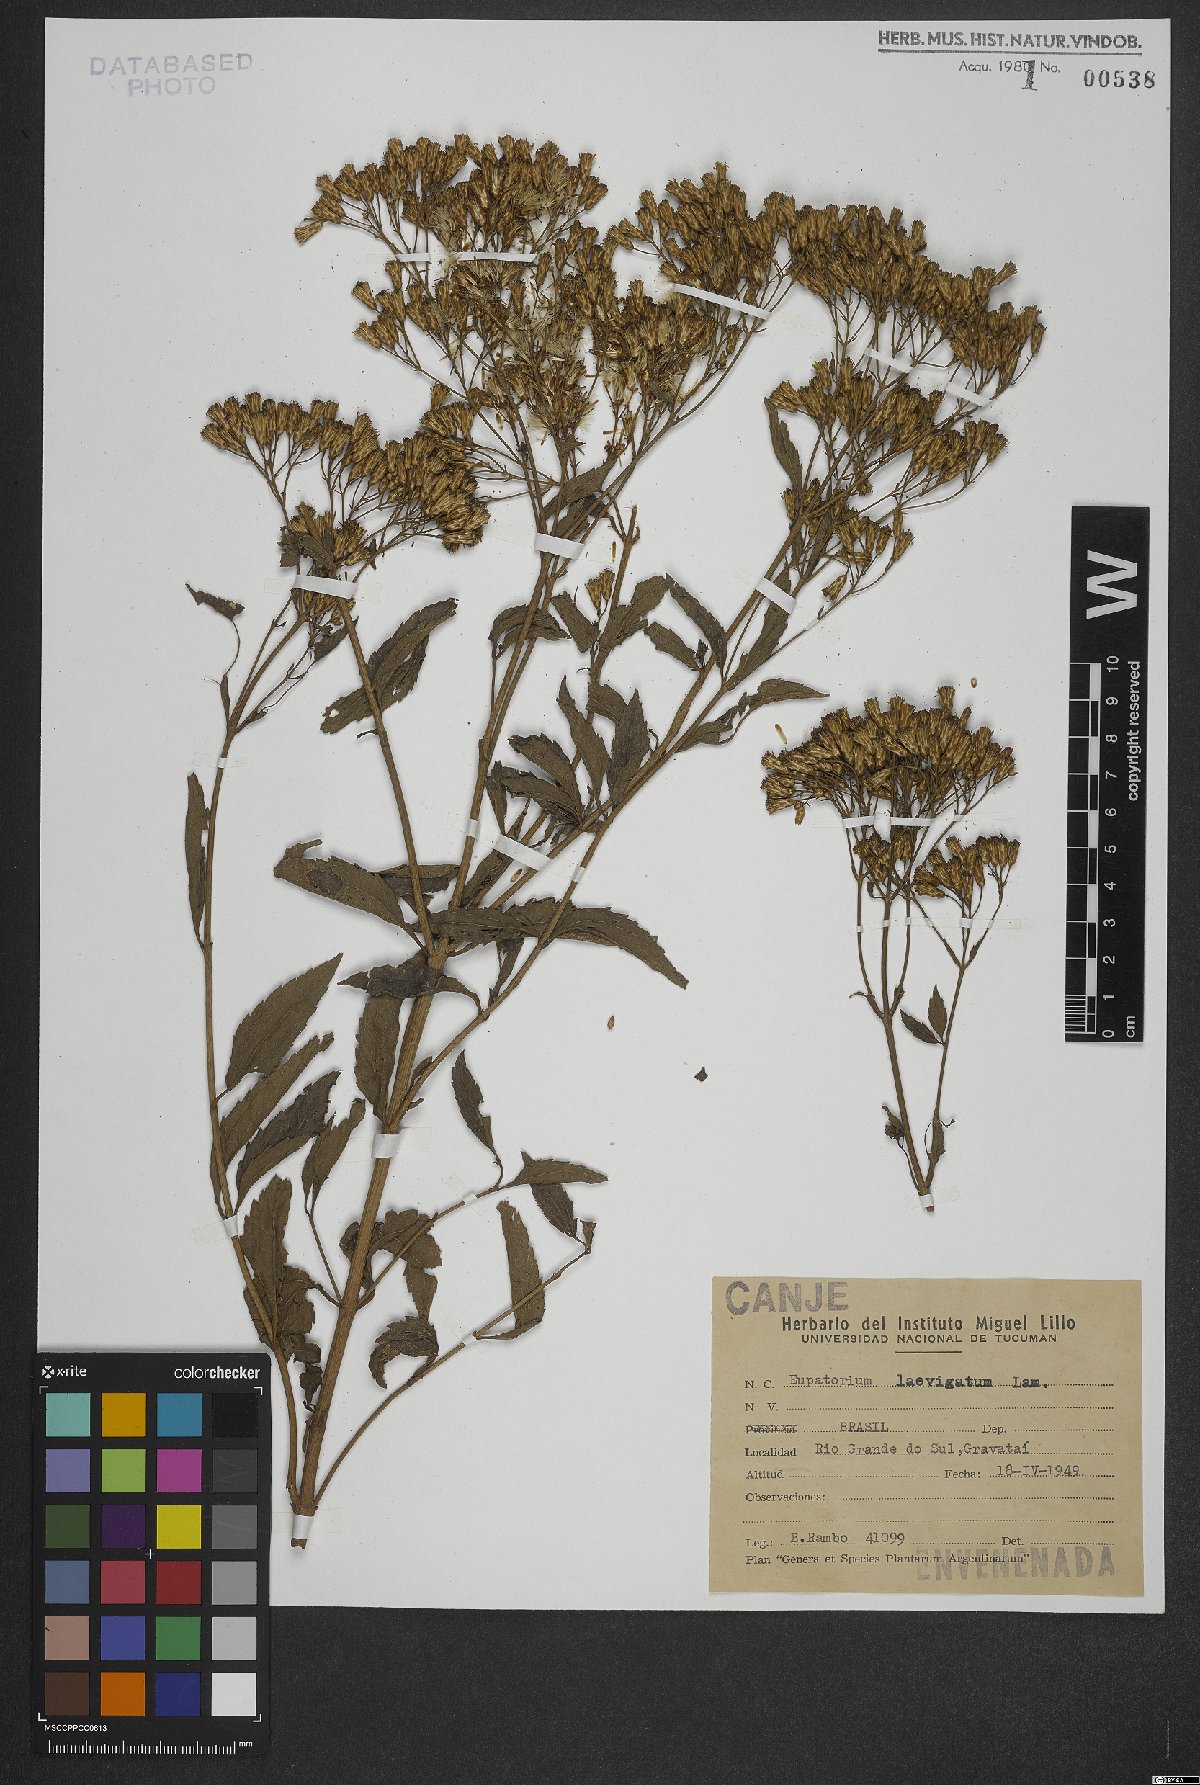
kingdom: Plantae
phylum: Tracheophyta
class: Magnoliopsida
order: Asterales
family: Asteraceae
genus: Eupatorium
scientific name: Eupatorium laevigatum
